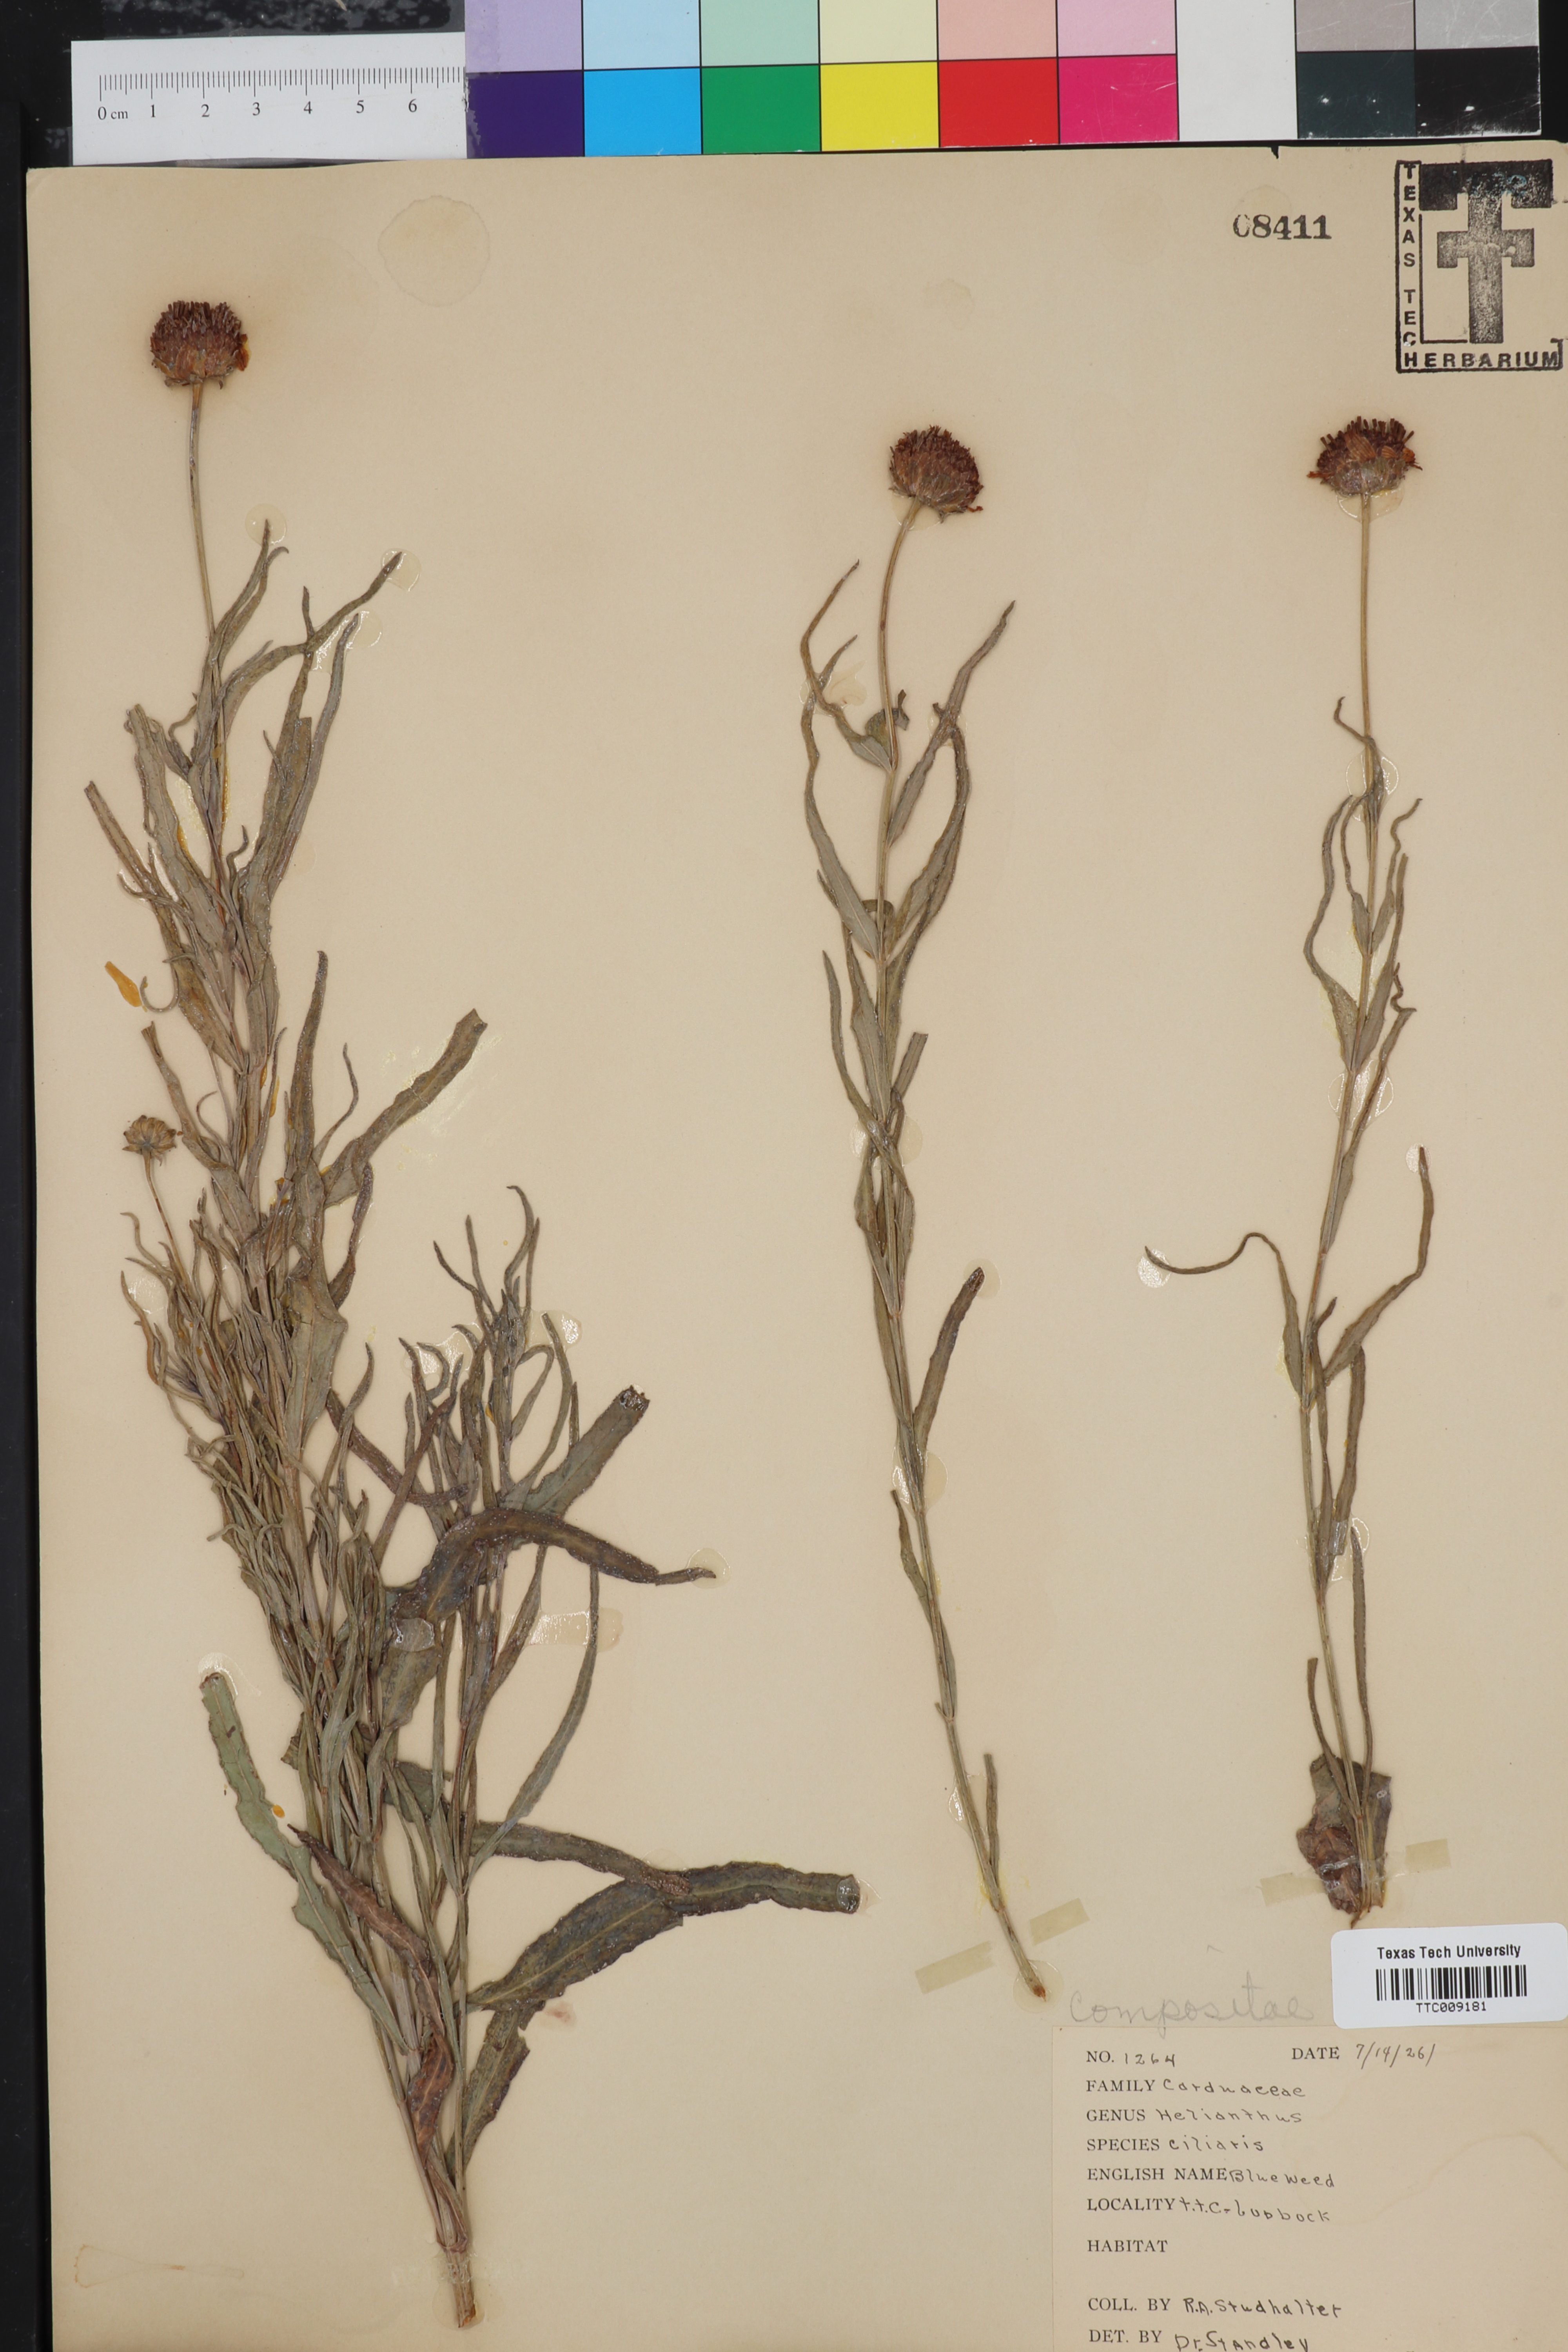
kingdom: Plantae
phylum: Tracheophyta
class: Magnoliopsida
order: Asterales
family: Asteraceae
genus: Helianthus
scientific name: Helianthus ciliaris
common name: Texas blueweed
